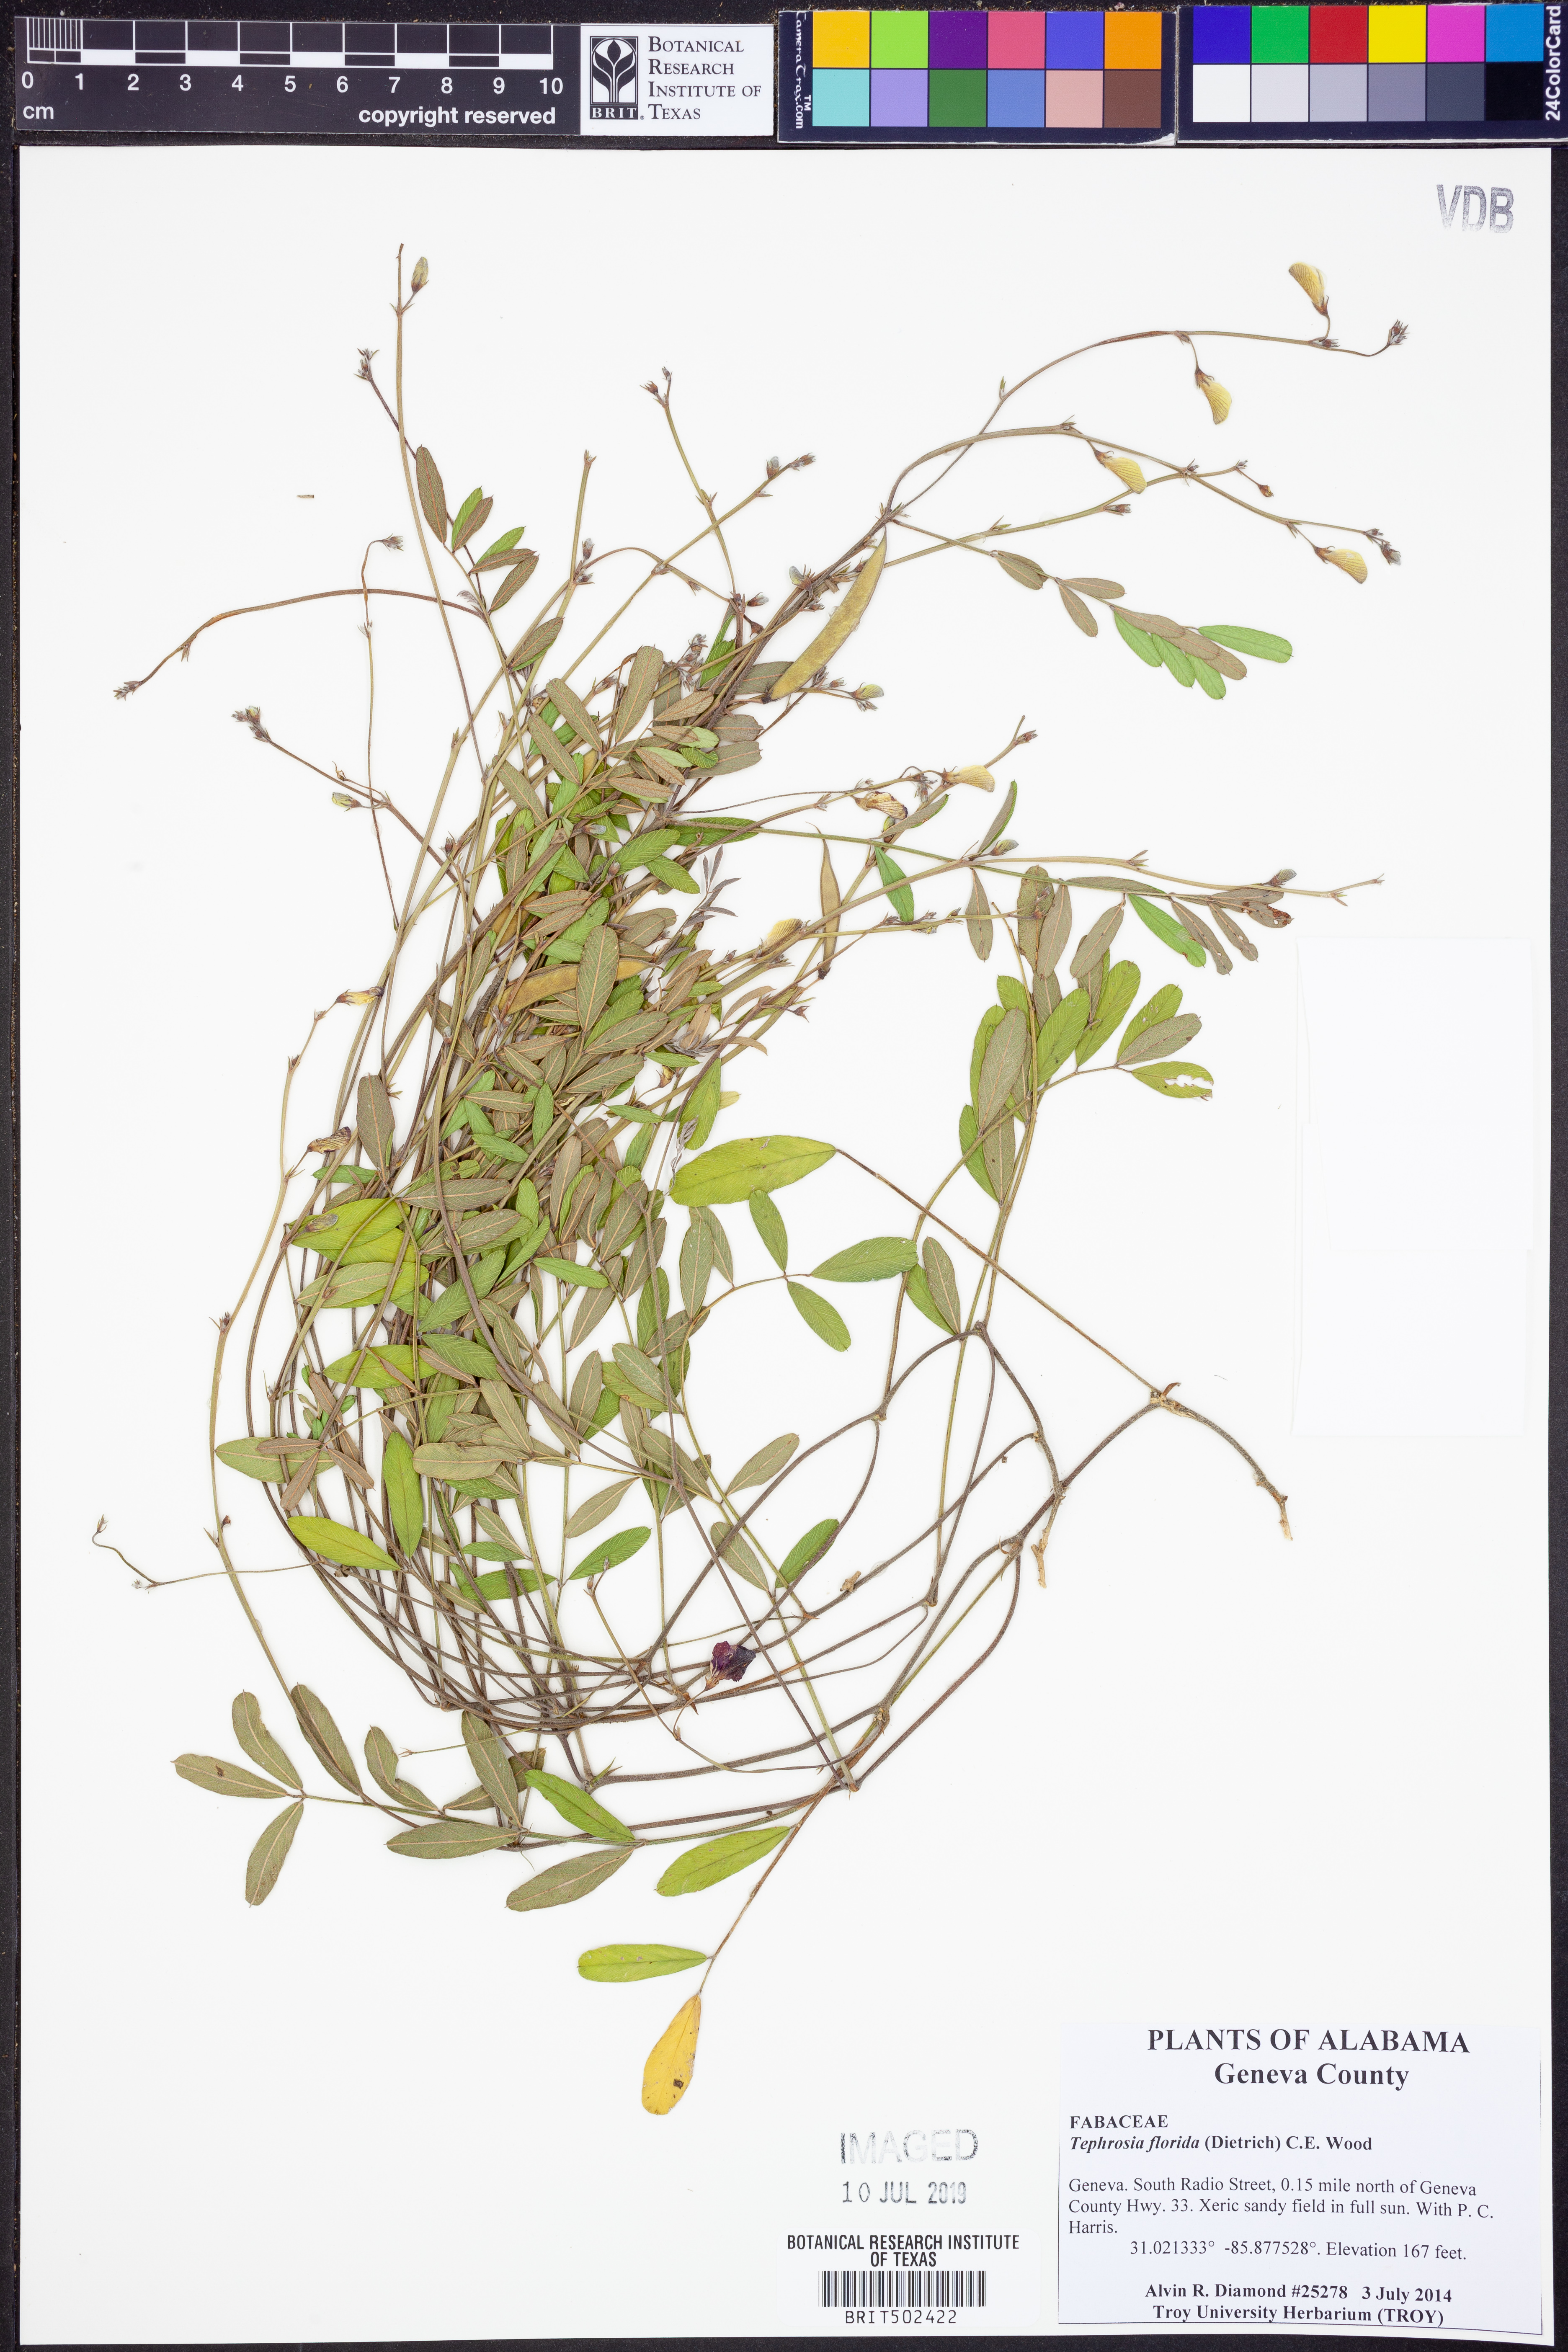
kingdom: Plantae
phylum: Tracheophyta
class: Magnoliopsida
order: Fabales
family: Fabaceae
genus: Tephrosia
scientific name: Tephrosia florida
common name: Florida hoary-pea
